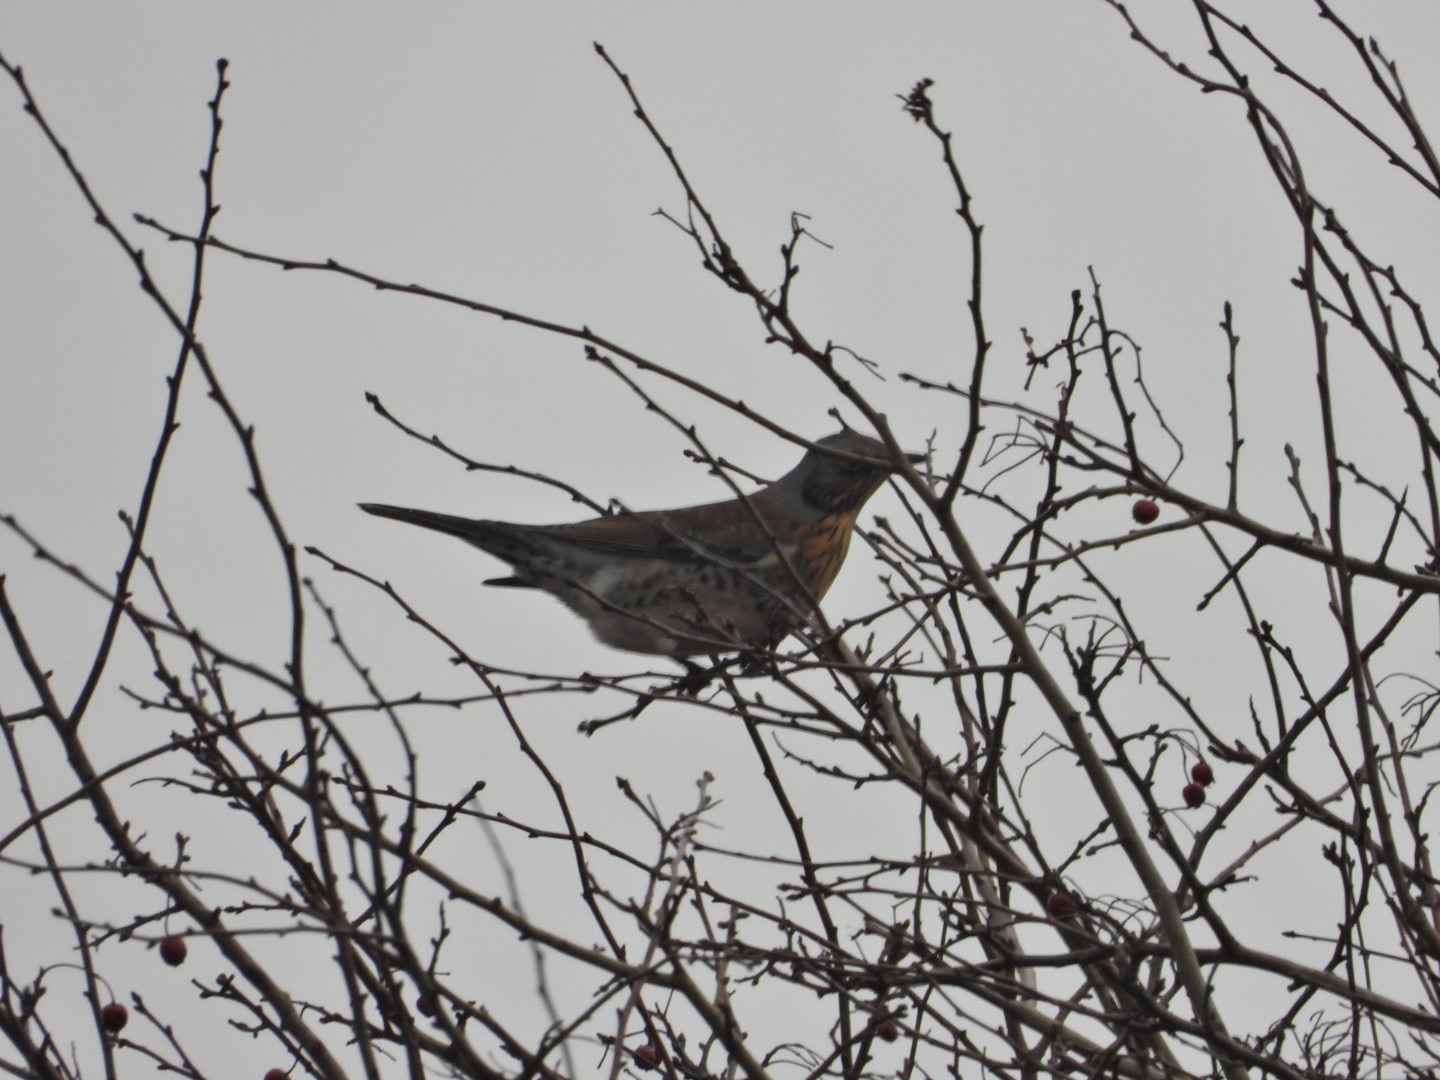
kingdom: Animalia
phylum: Chordata
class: Aves
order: Passeriformes
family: Turdidae
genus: Turdus
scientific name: Turdus pilaris
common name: Sjagger
